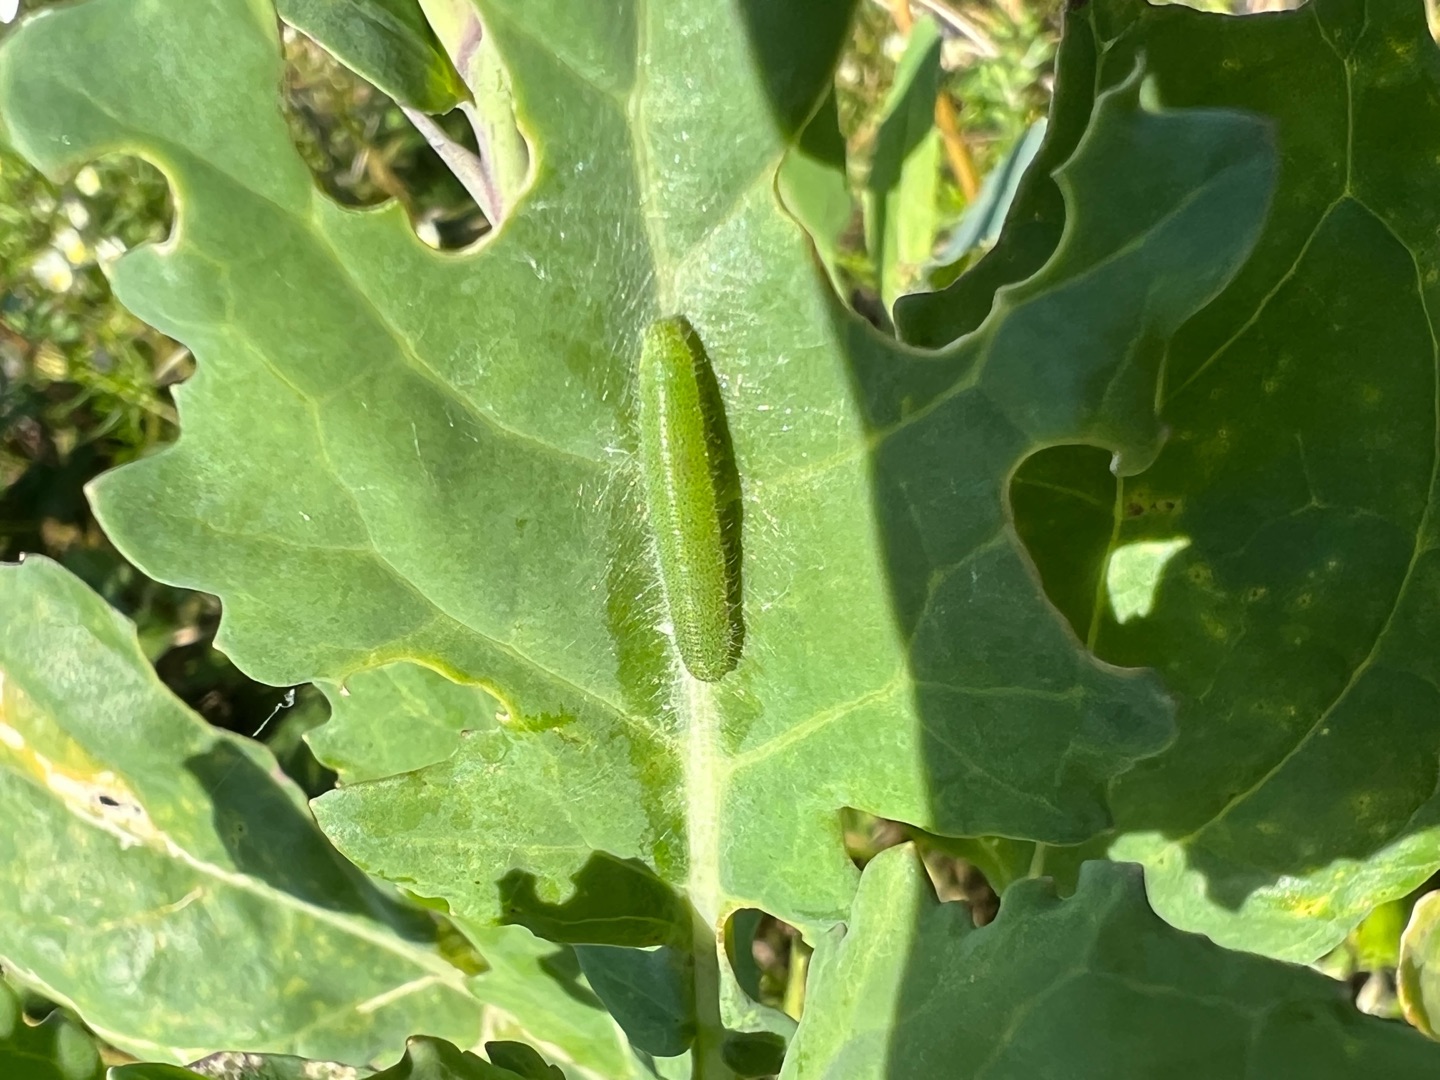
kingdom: Animalia
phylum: Arthropoda
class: Insecta
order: Lepidoptera
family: Pieridae
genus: Pieris
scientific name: Pieris rapae
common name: Lille kålsommerfugl
